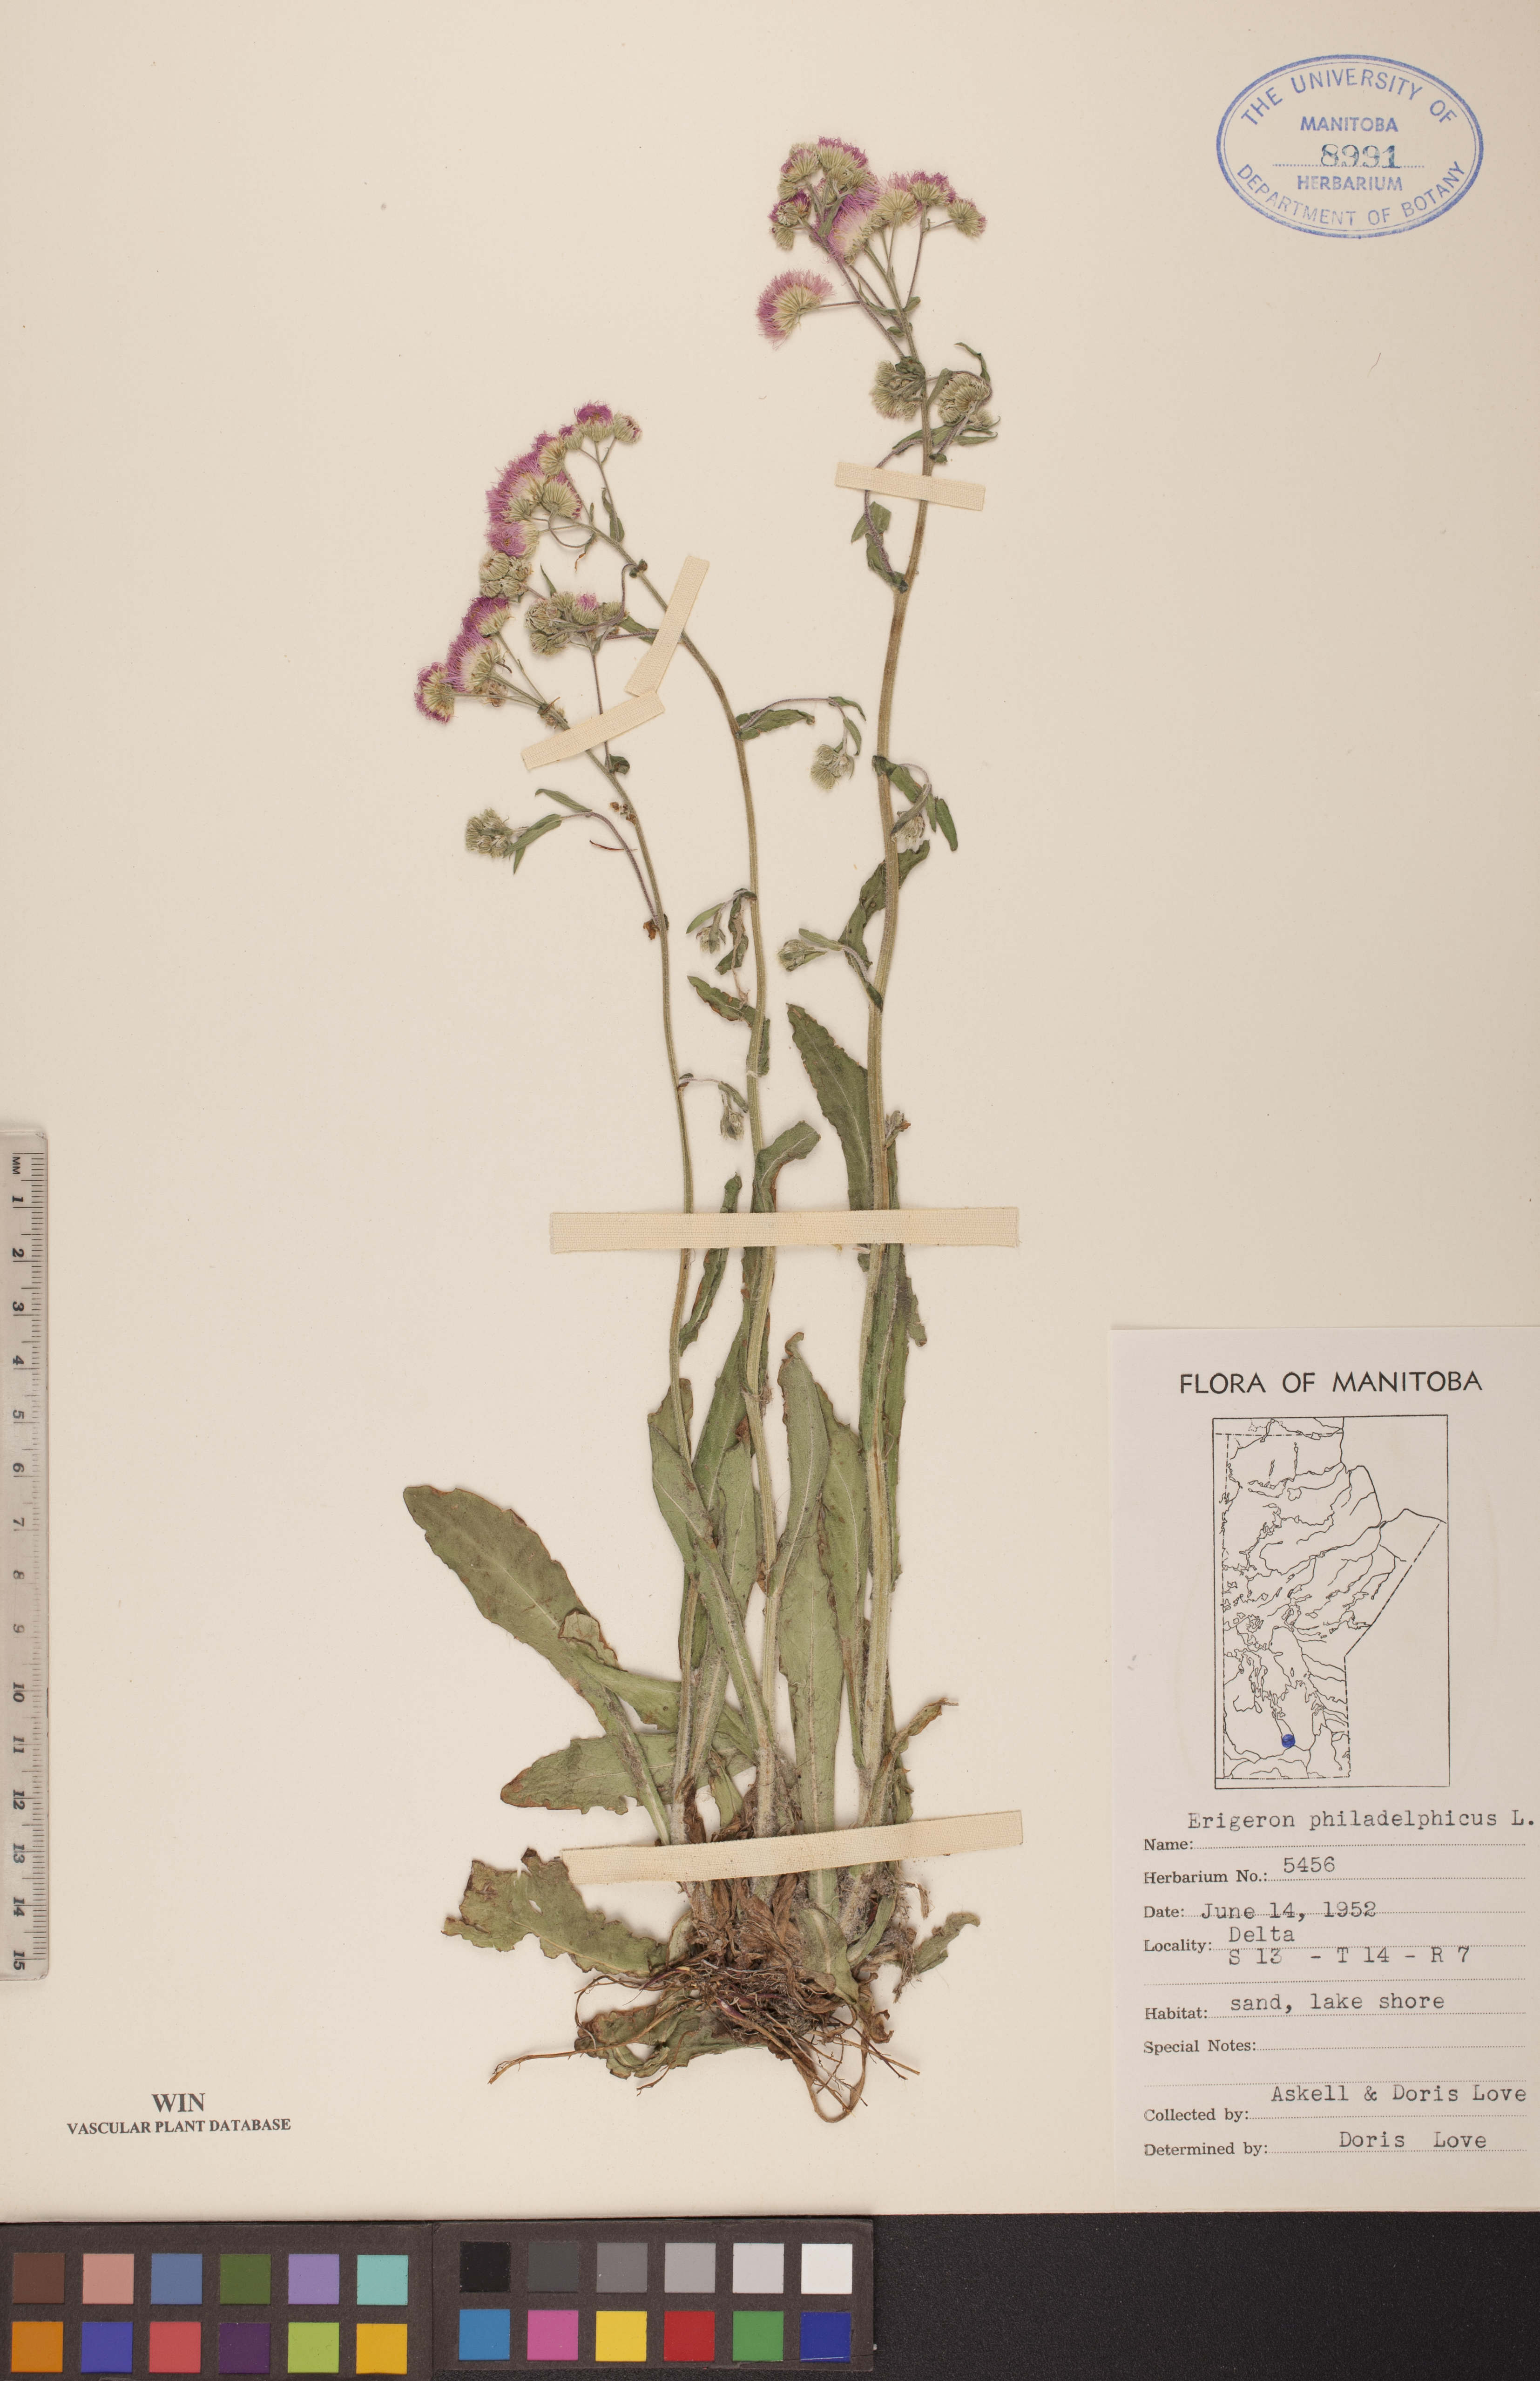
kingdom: Plantae
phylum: Tracheophyta
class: Magnoliopsida
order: Asterales
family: Asteraceae
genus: Erigeron
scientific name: Erigeron philadelphicus
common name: Robin's-plantain
